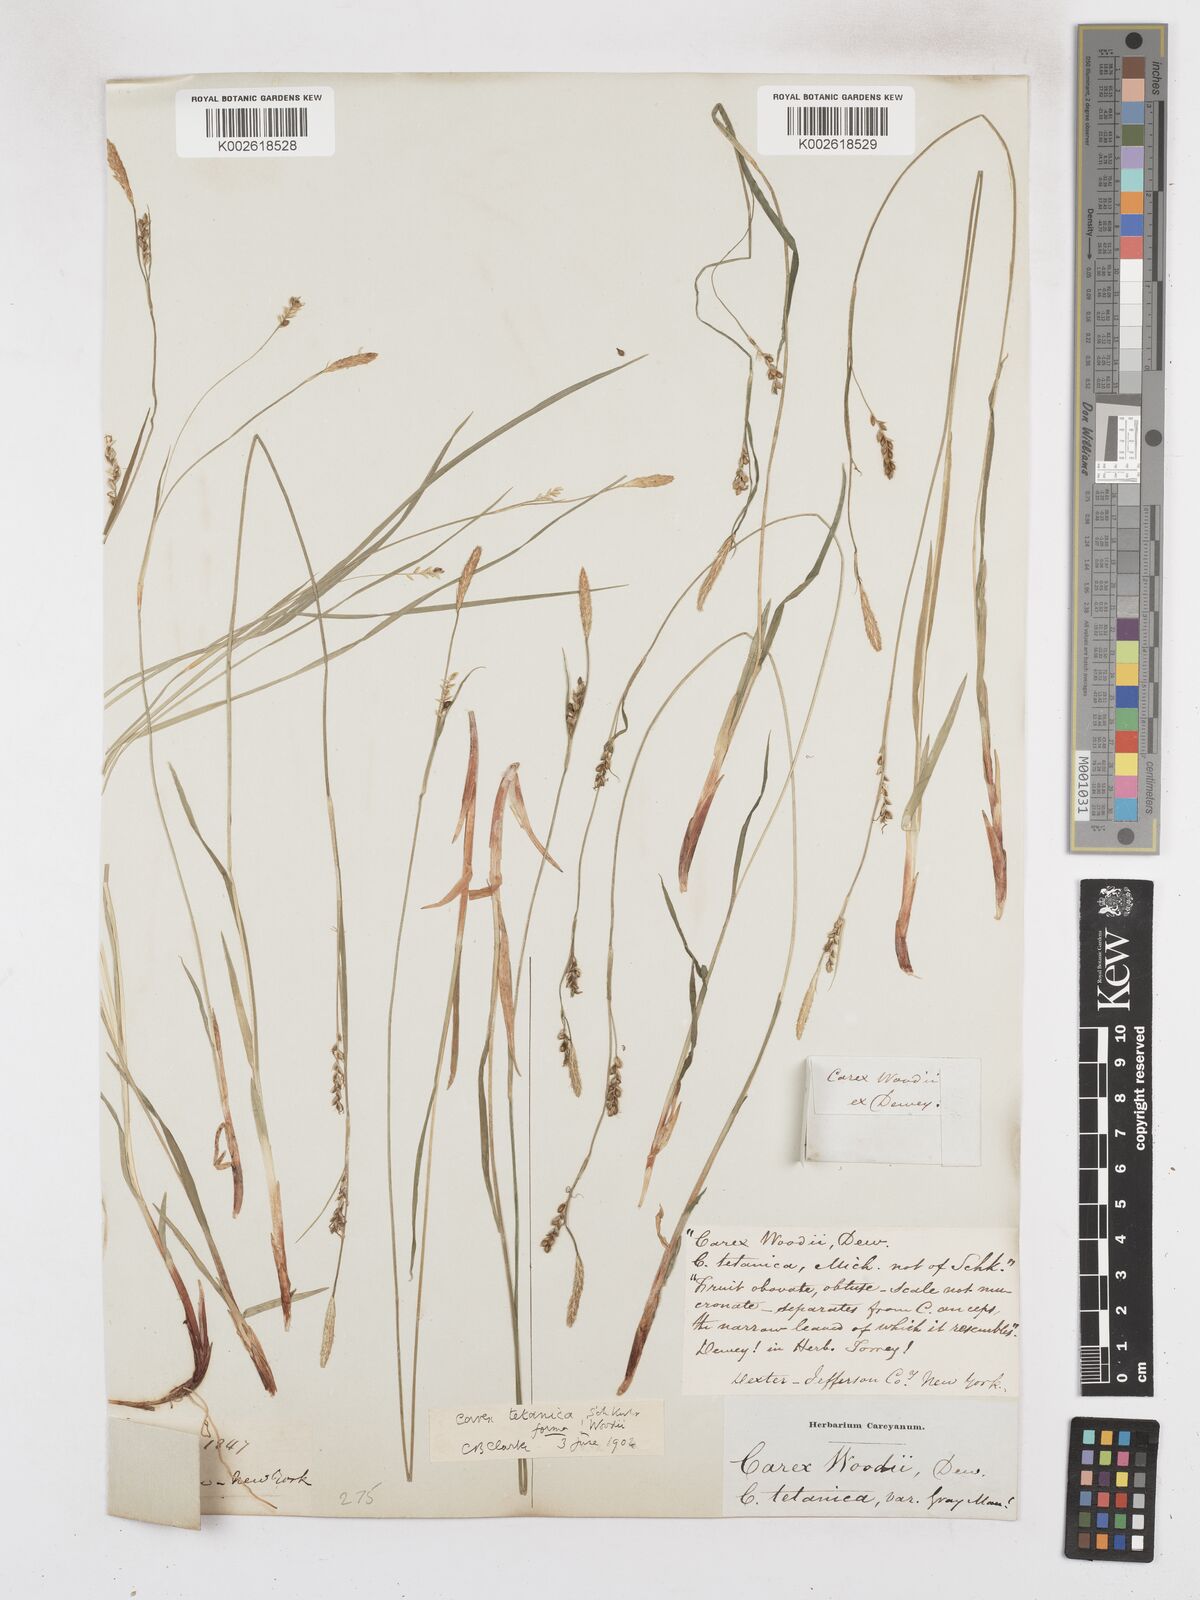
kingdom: Plantae
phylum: Tracheophyta
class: Liliopsida
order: Poales
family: Cyperaceae
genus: Carex
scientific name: Carex tetanica
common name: Rigid sedge
